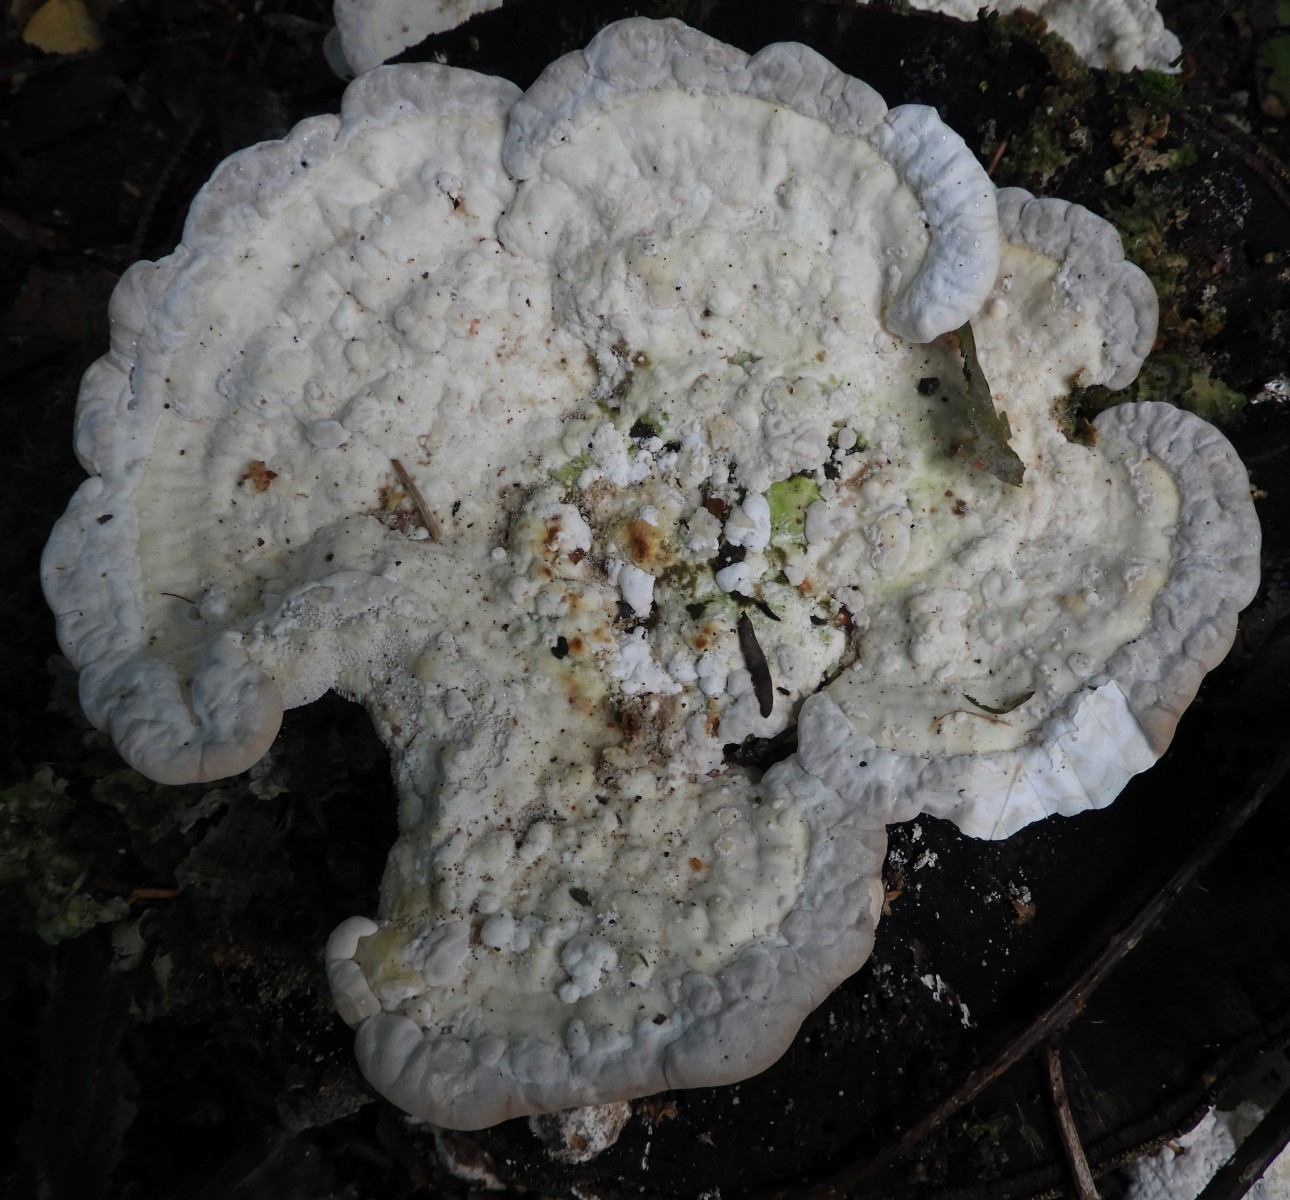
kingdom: Fungi
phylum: Basidiomycota
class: Agaricomycetes
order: Polyporales
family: Polyporaceae
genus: Trametes
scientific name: Trametes gibbosa
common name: puklet læderporesvamp
